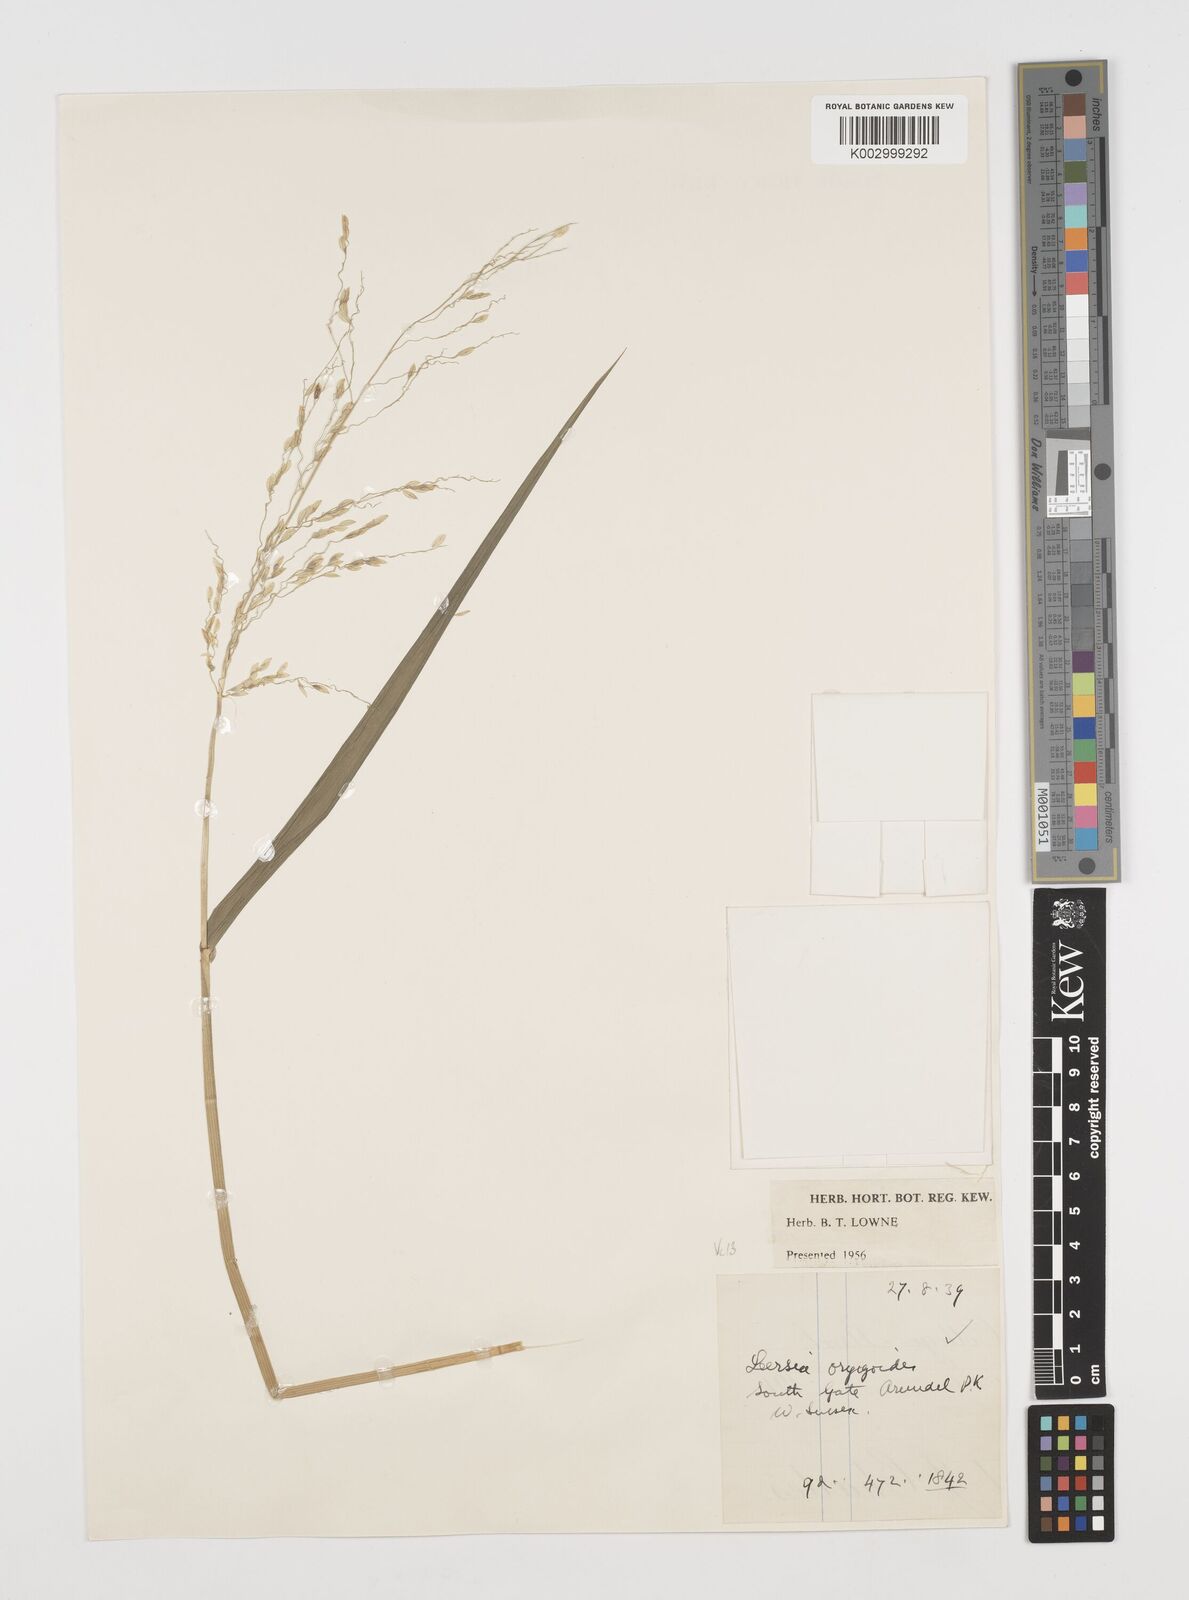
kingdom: Plantae
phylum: Tracheophyta
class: Liliopsida
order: Poales
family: Poaceae
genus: Leersia
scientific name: Leersia oryzoides
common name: Cut-grass
